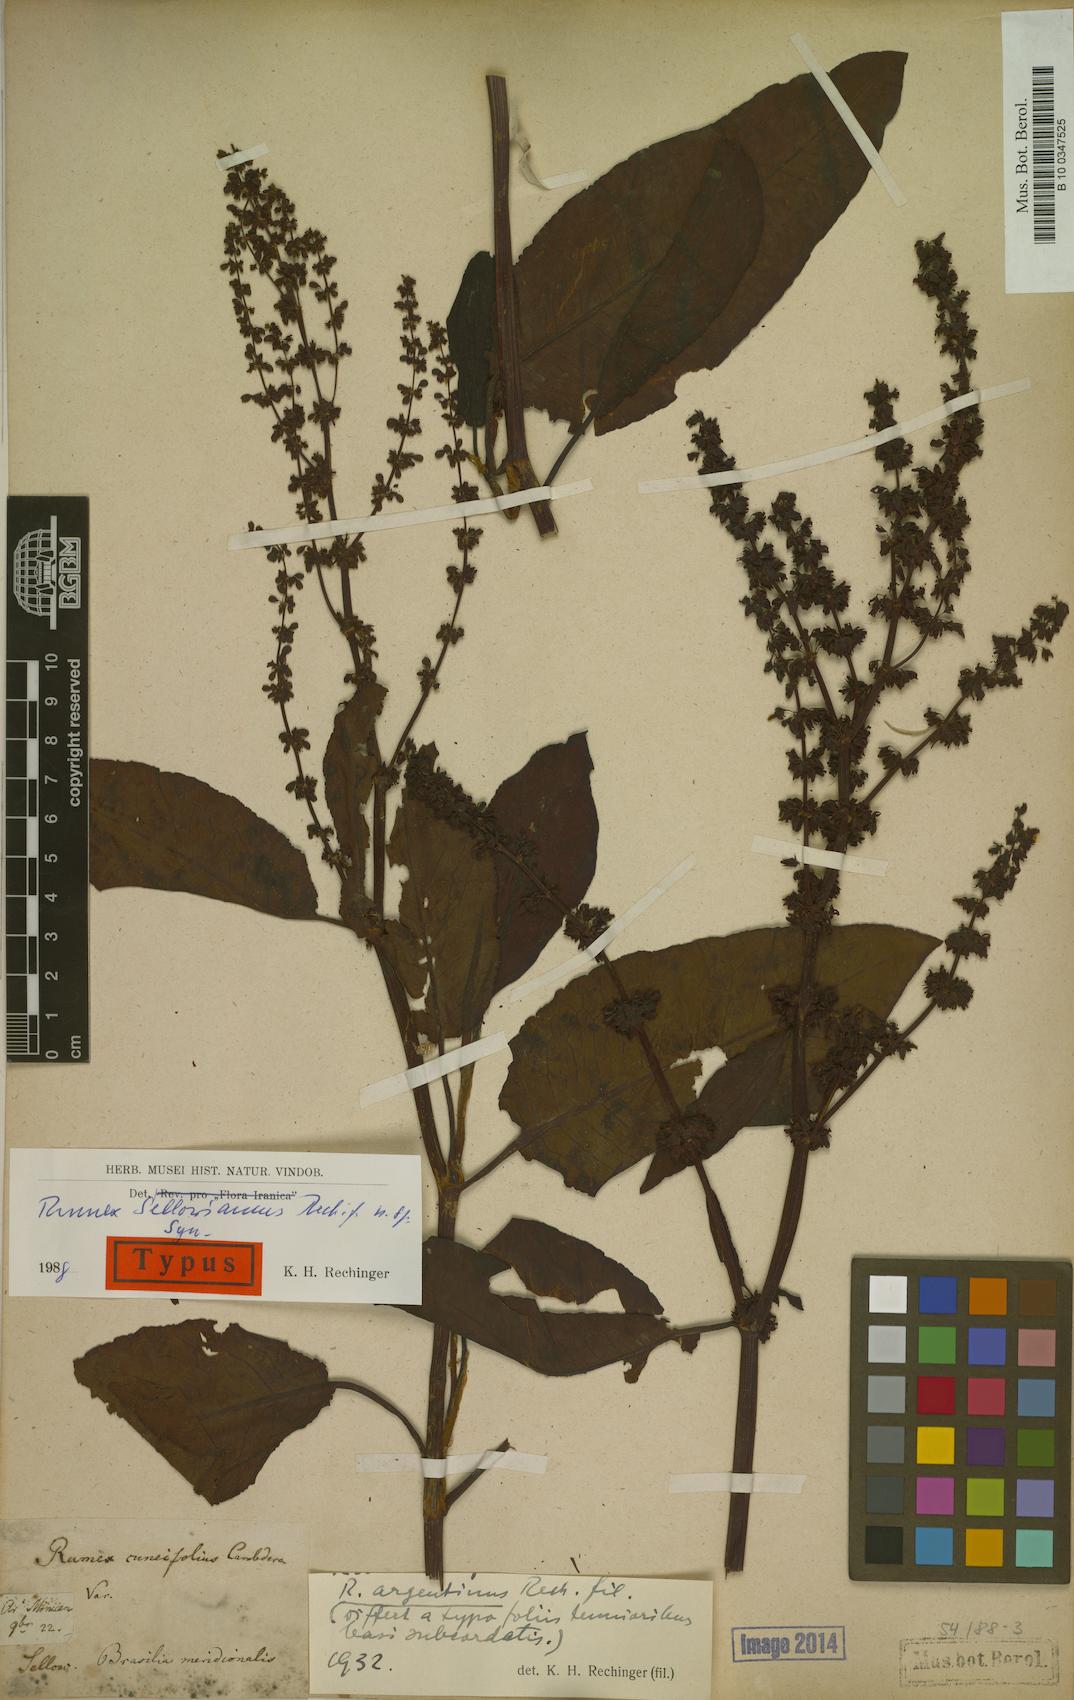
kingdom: Plantae
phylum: Tracheophyta
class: Magnoliopsida
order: Caryophyllales
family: Polygonaceae
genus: Rumex
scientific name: Rumex sellowianus
